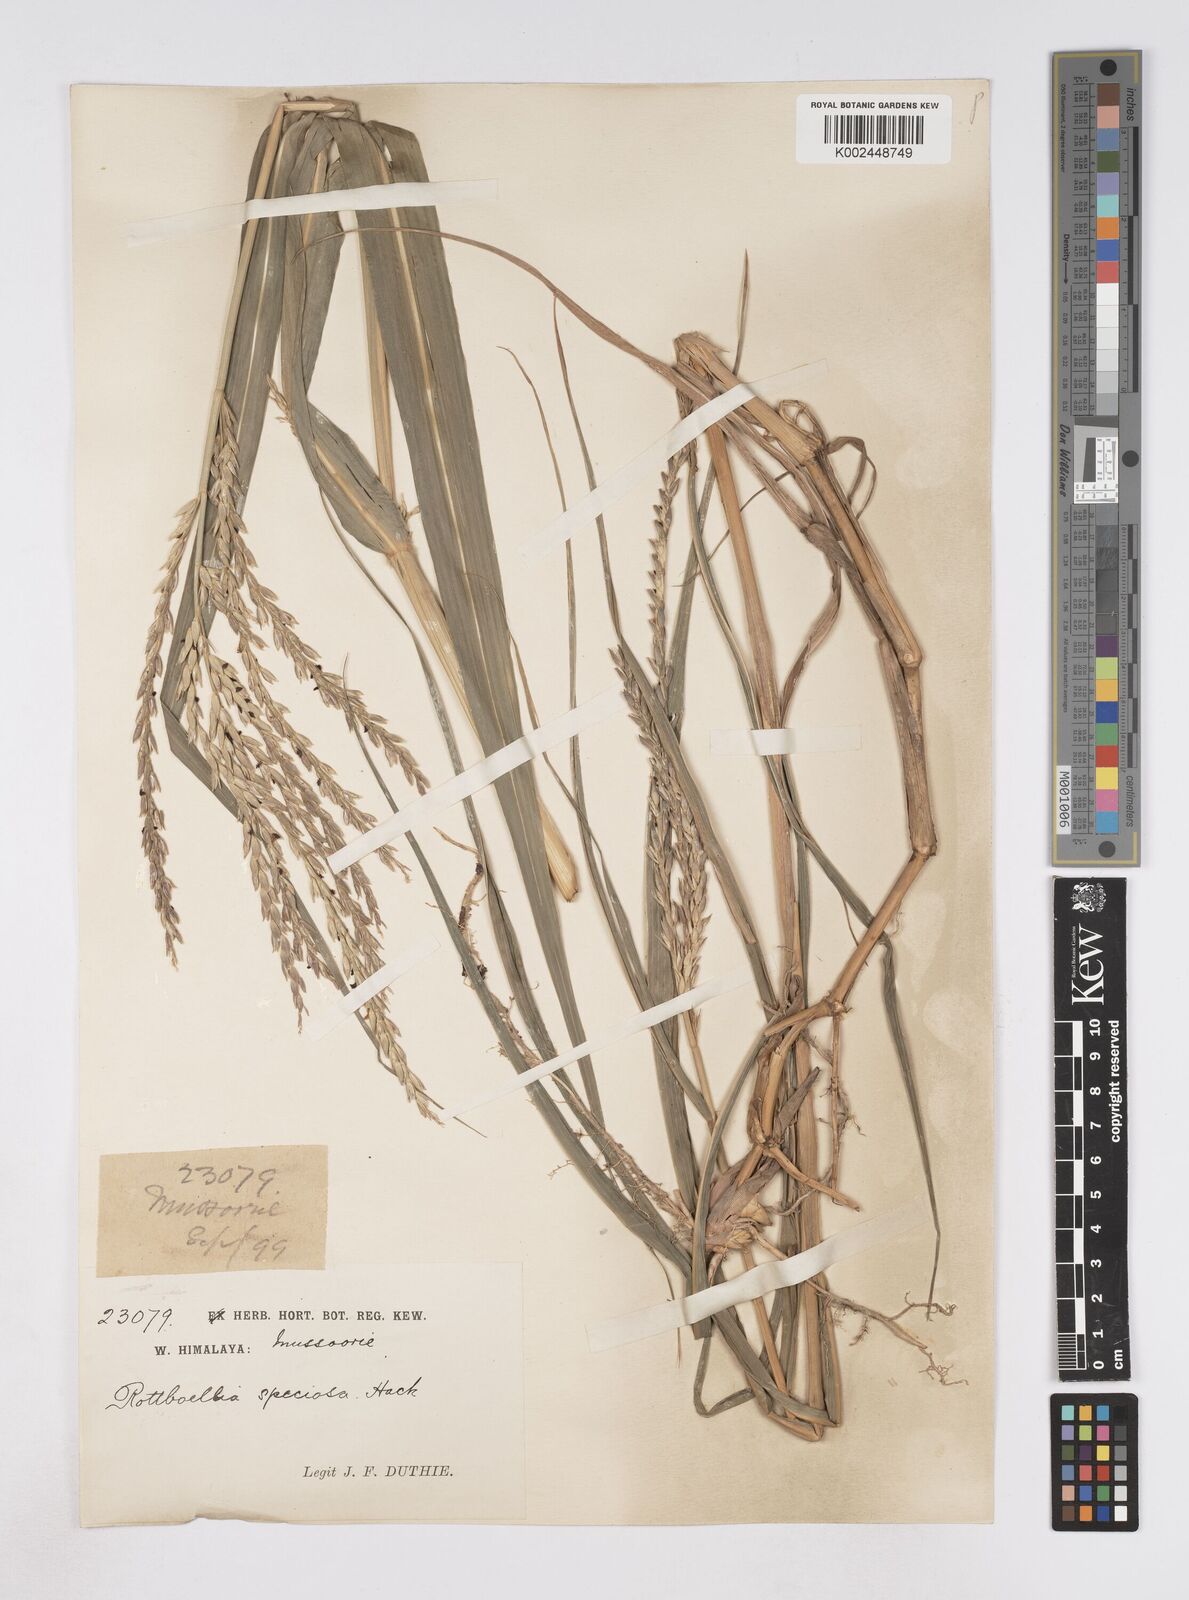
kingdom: Plantae
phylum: Tracheophyta
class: Liliopsida
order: Poales
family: Poaceae
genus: Phacelurus
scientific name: Phacelurus speciosus
